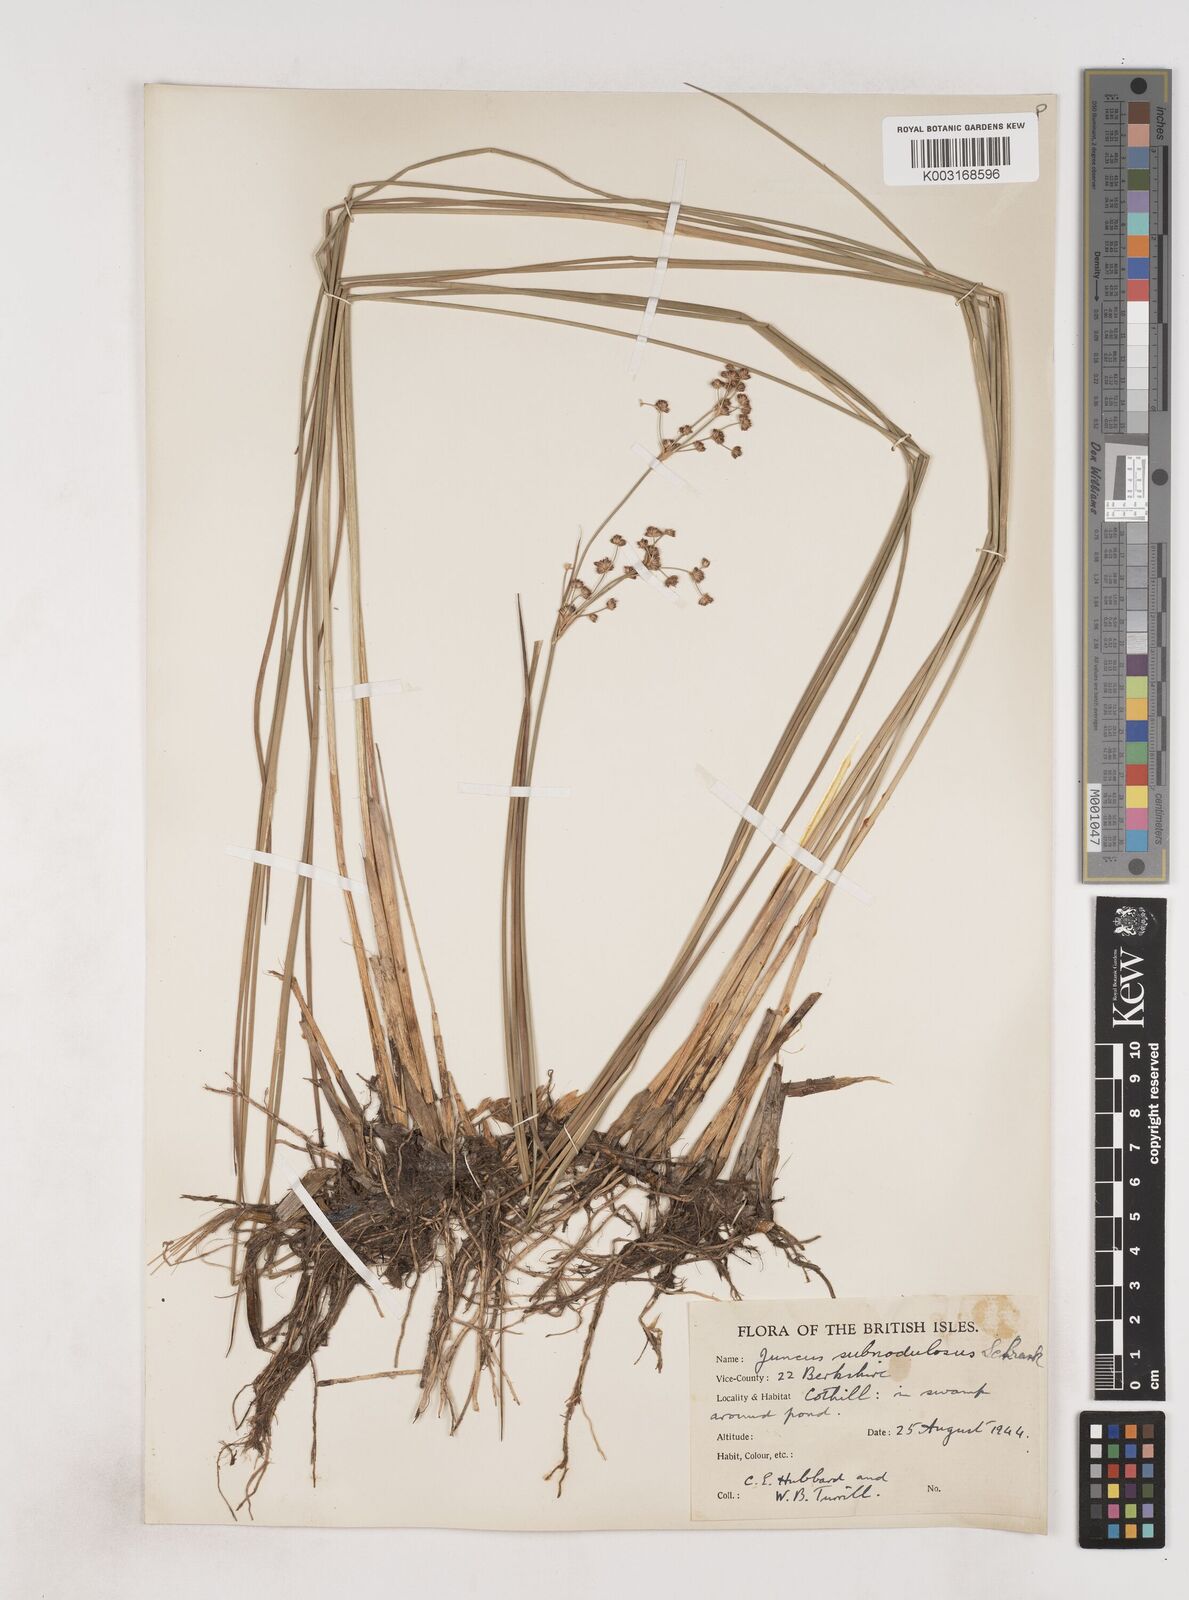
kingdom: Plantae
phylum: Tracheophyta
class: Liliopsida
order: Poales
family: Juncaceae
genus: Juncus
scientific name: Juncus subnodulosus
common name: Blunt-flowered rush
